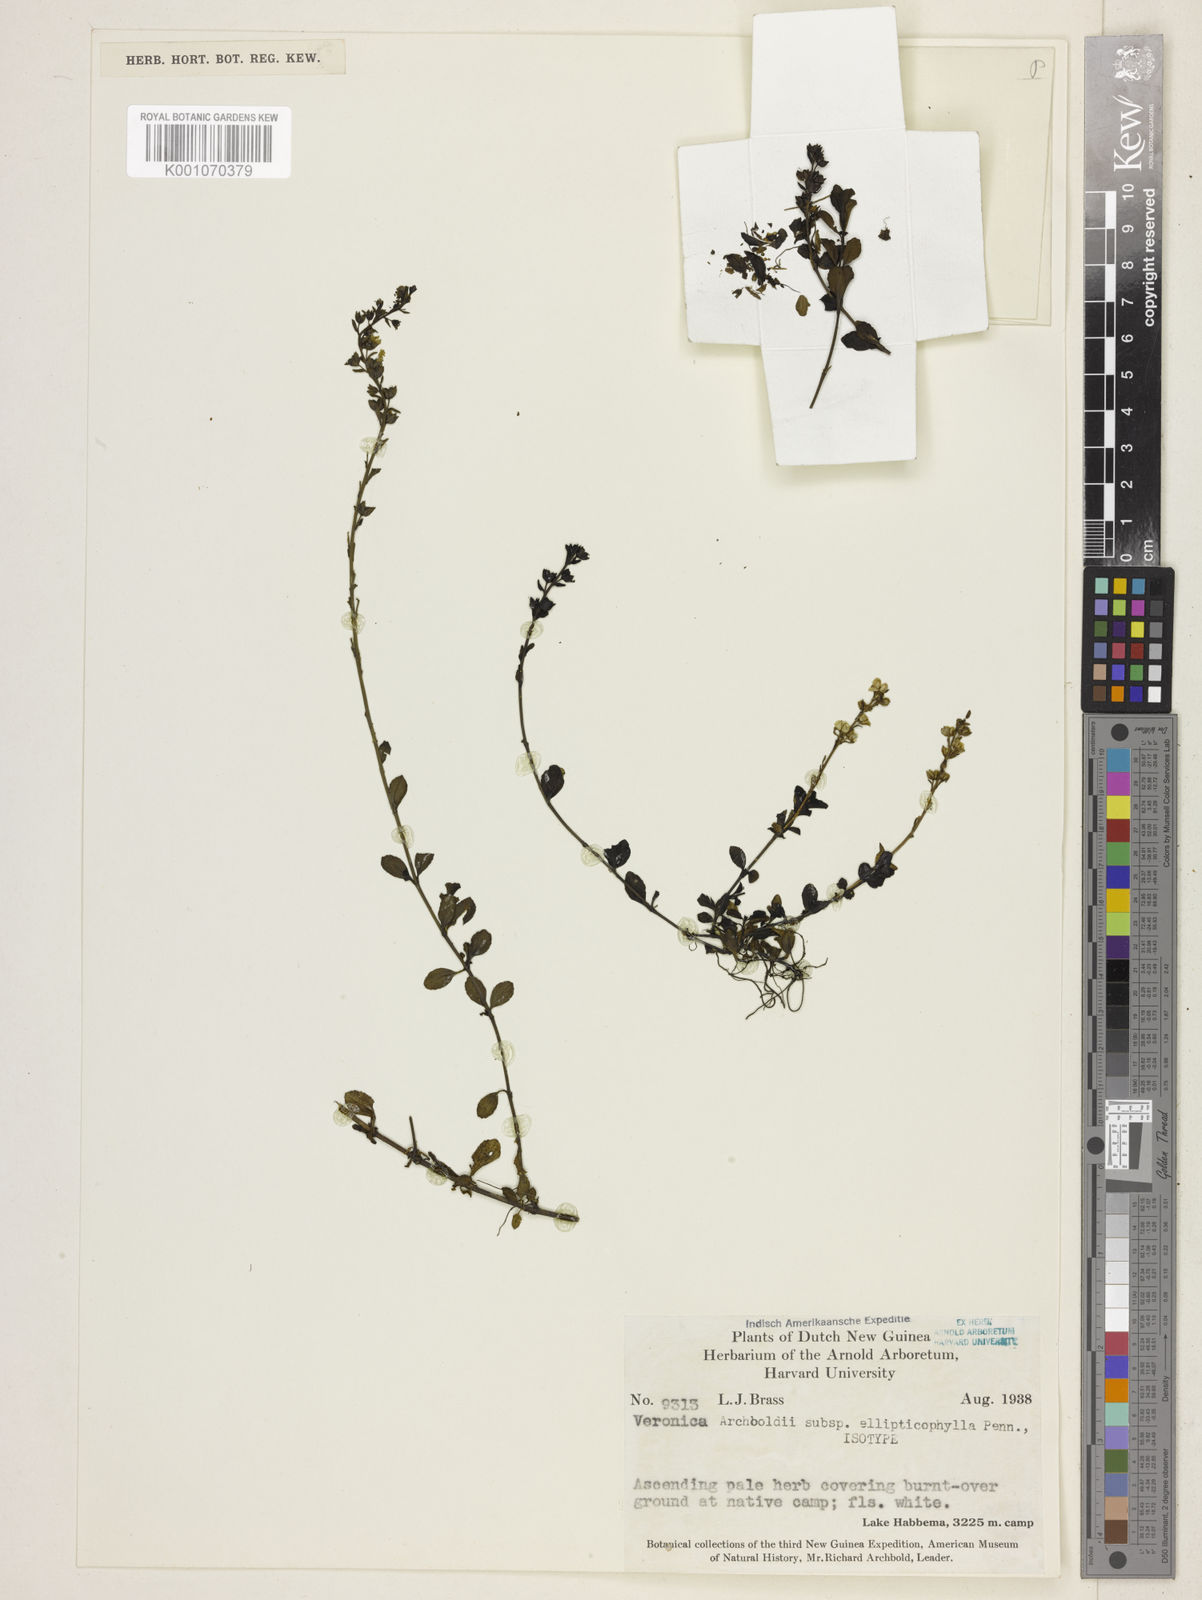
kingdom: Plantae
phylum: Tracheophyta
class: Magnoliopsida
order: Lamiales
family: Plantaginaceae
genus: Veronica
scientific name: Veronica archboldii
